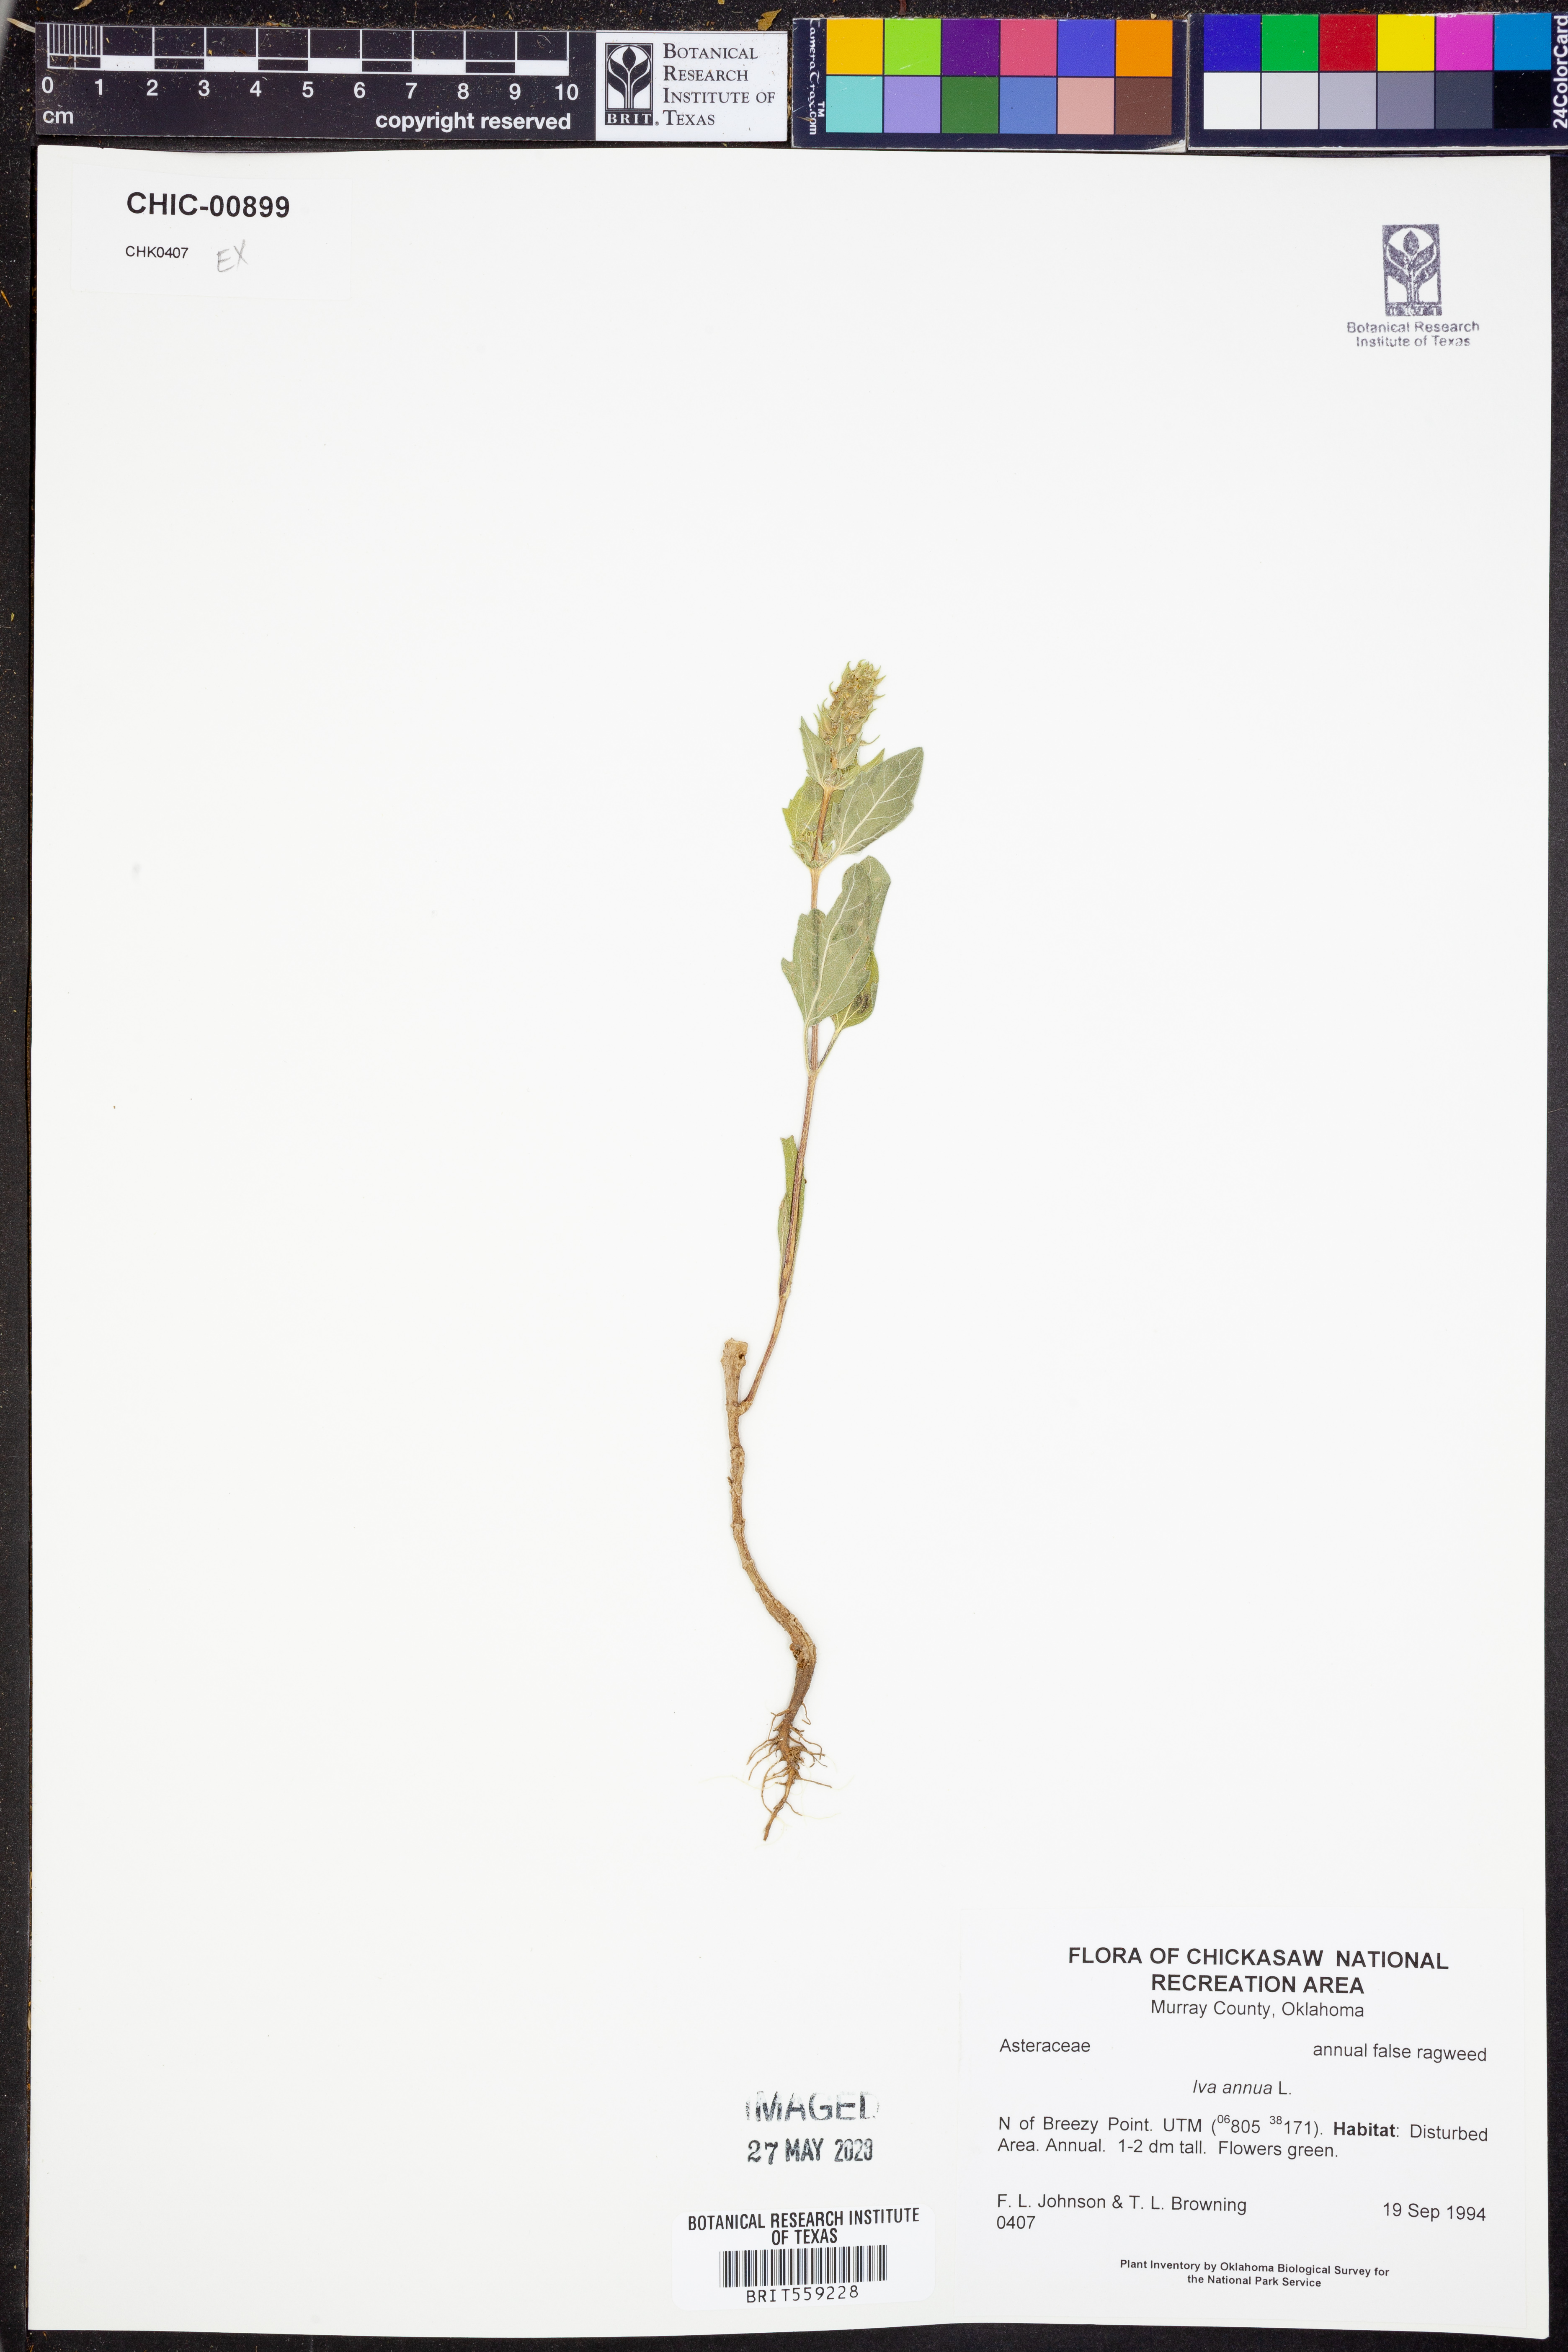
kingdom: Plantae
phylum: Tracheophyta
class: Magnoliopsida
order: Asterales
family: Asteraceae
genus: Iva
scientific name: Iva annua
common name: Marsh-elder
